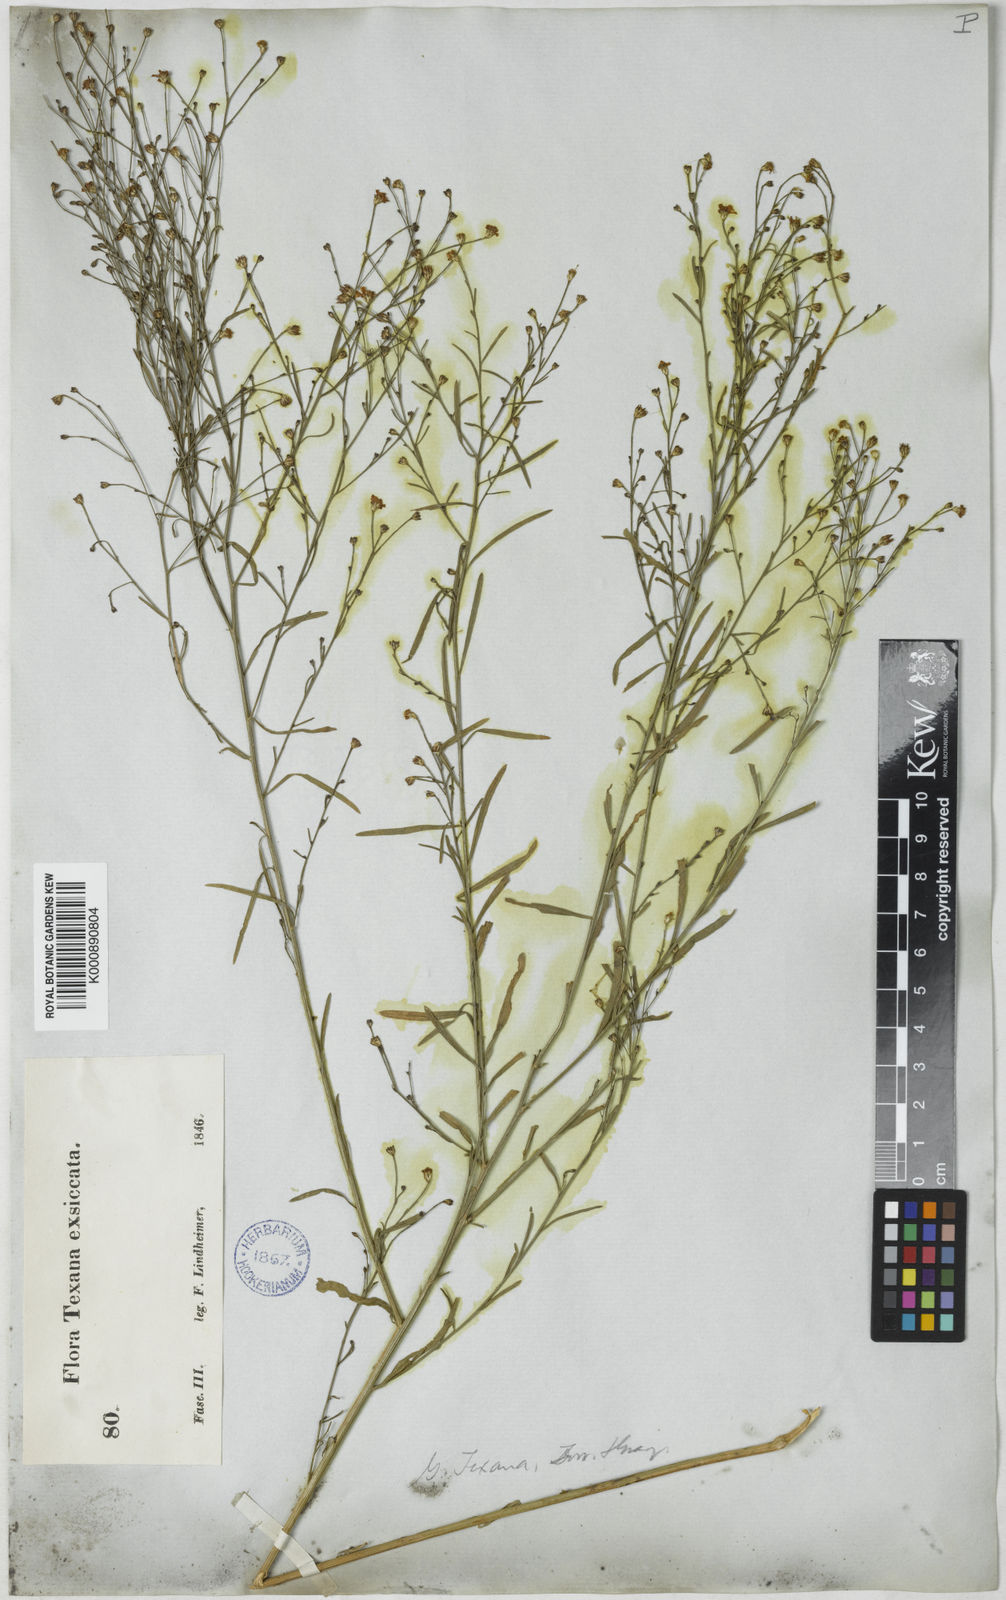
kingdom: Plantae
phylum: Tracheophyta
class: Magnoliopsida
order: Asterales
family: Asteraceae
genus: Gutierrezia
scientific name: Gutierrezia texana
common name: Texas snakeweed
